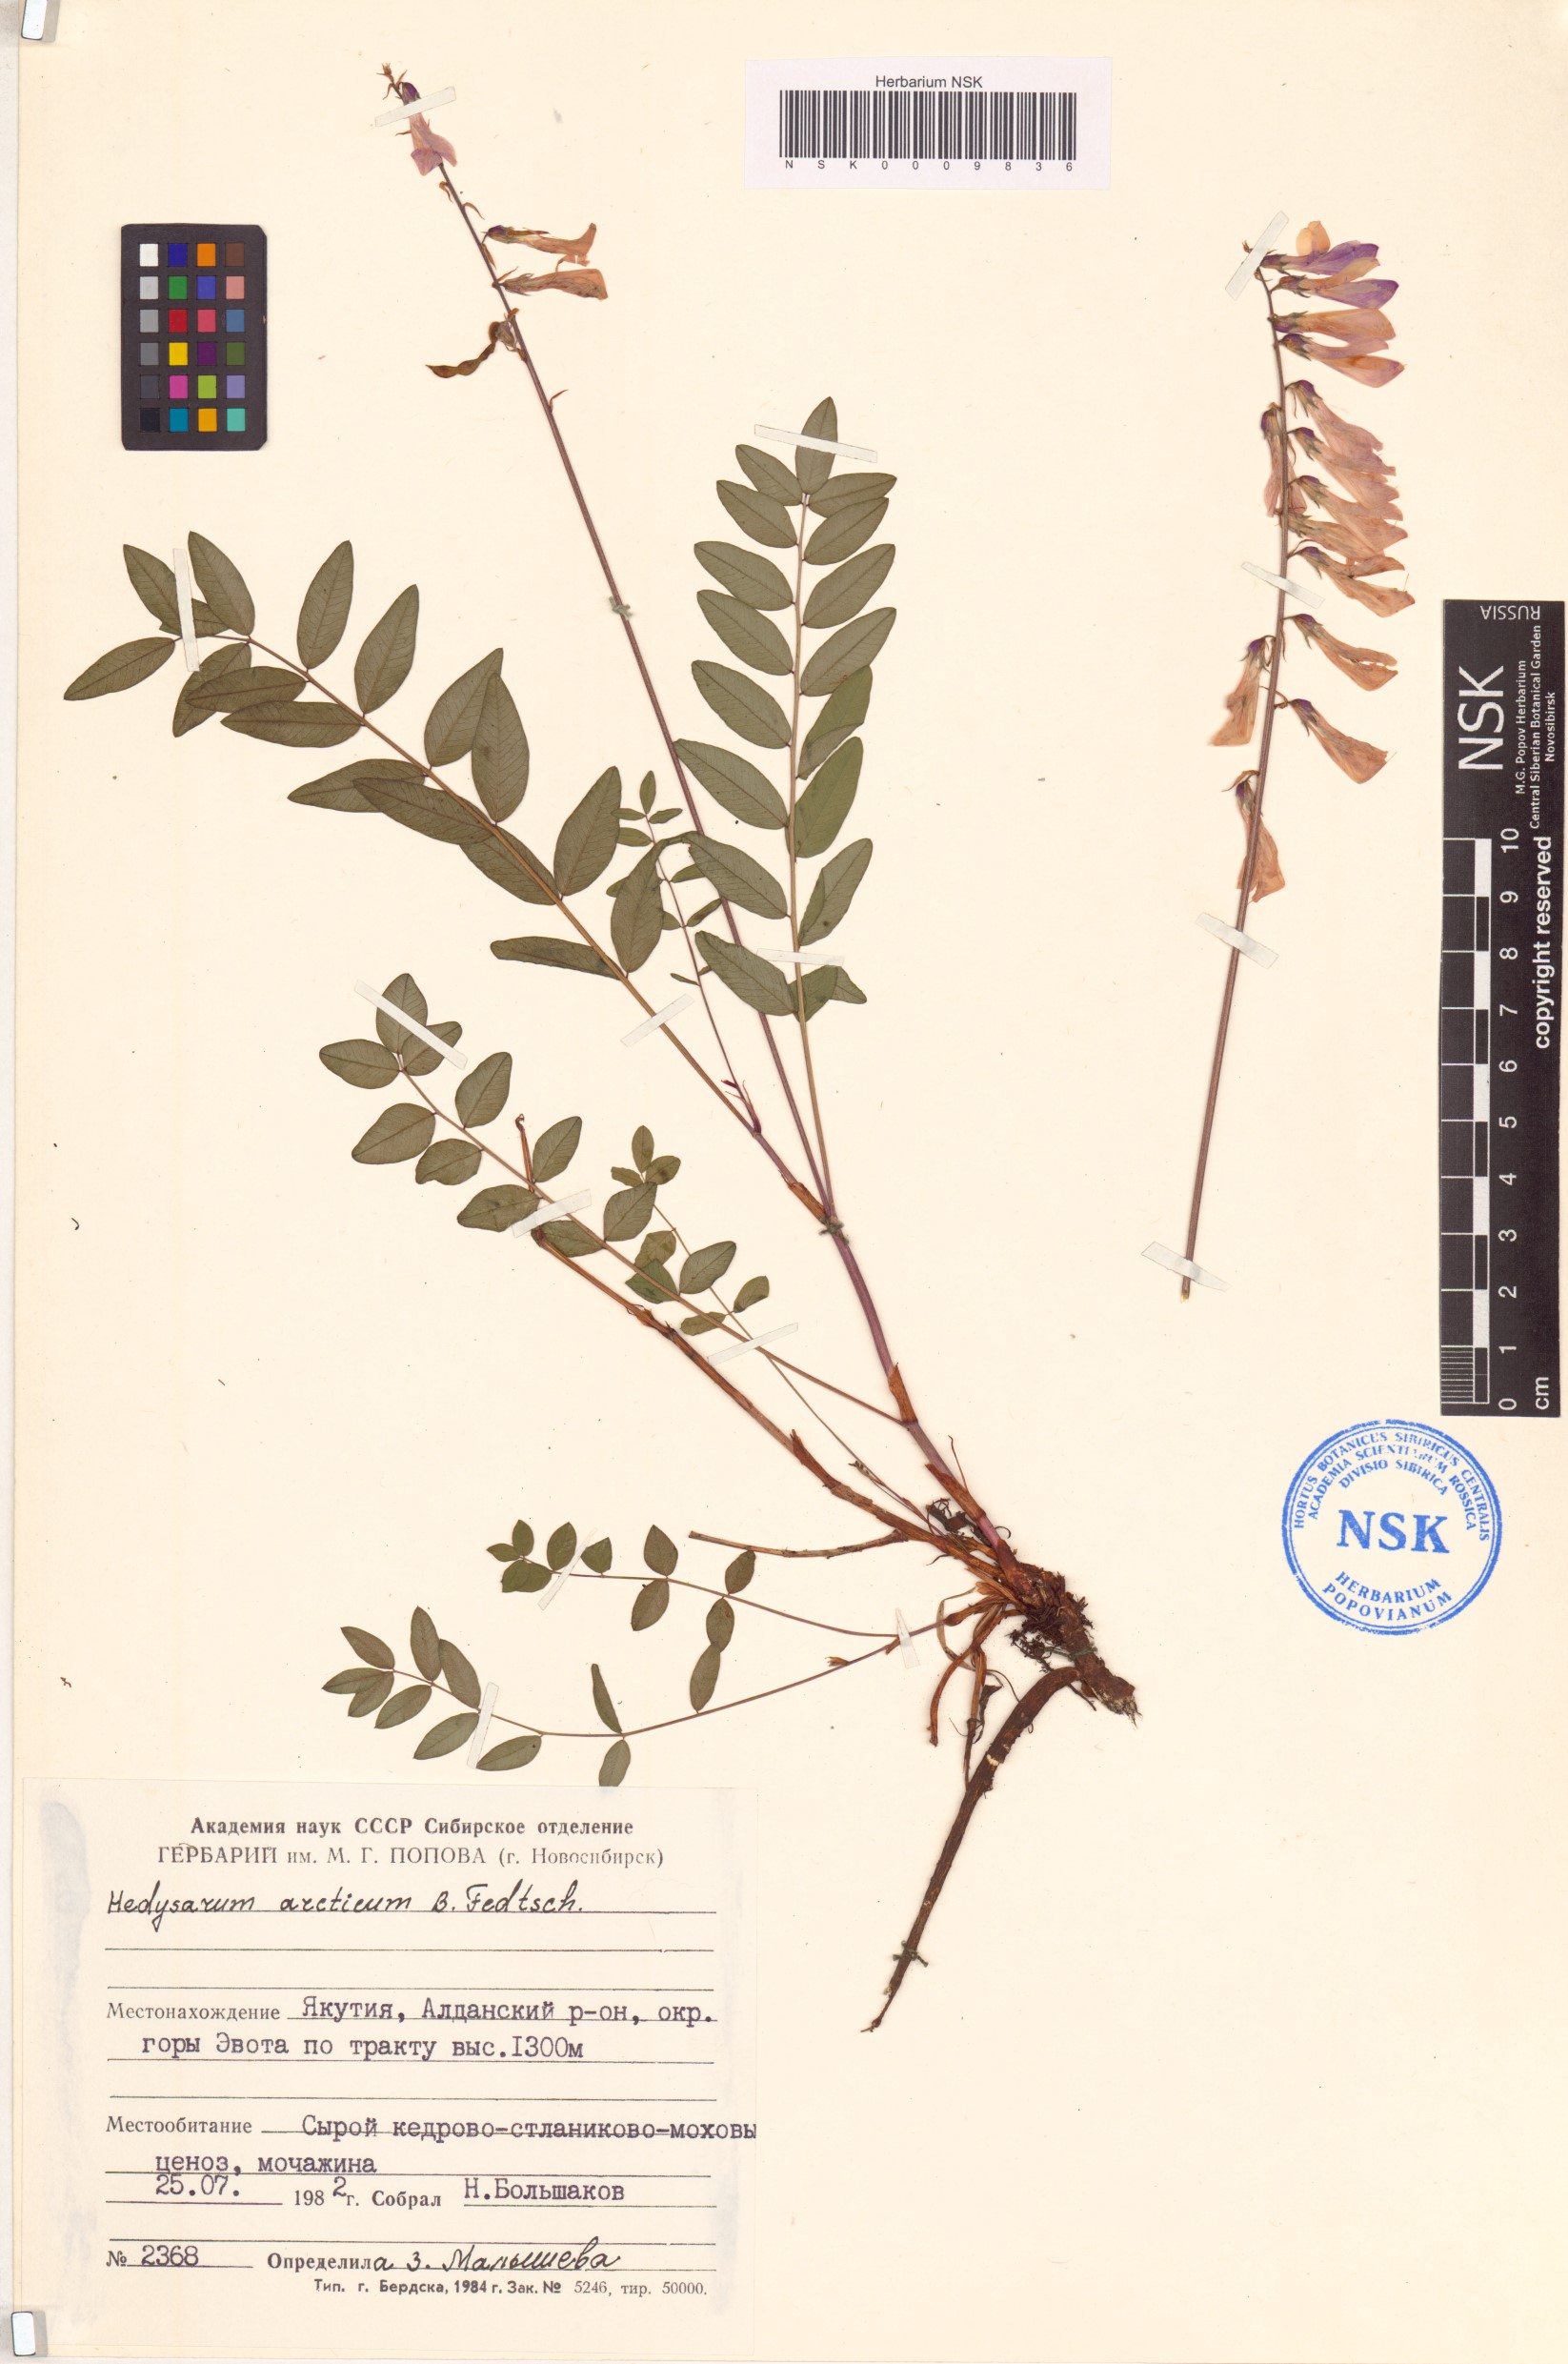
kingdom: Plantae
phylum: Tracheophyta
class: Magnoliopsida
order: Fabales
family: Fabaceae
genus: Hedysarum
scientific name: Hedysarum hedysaroides
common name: Alpine french-honeysuckle
